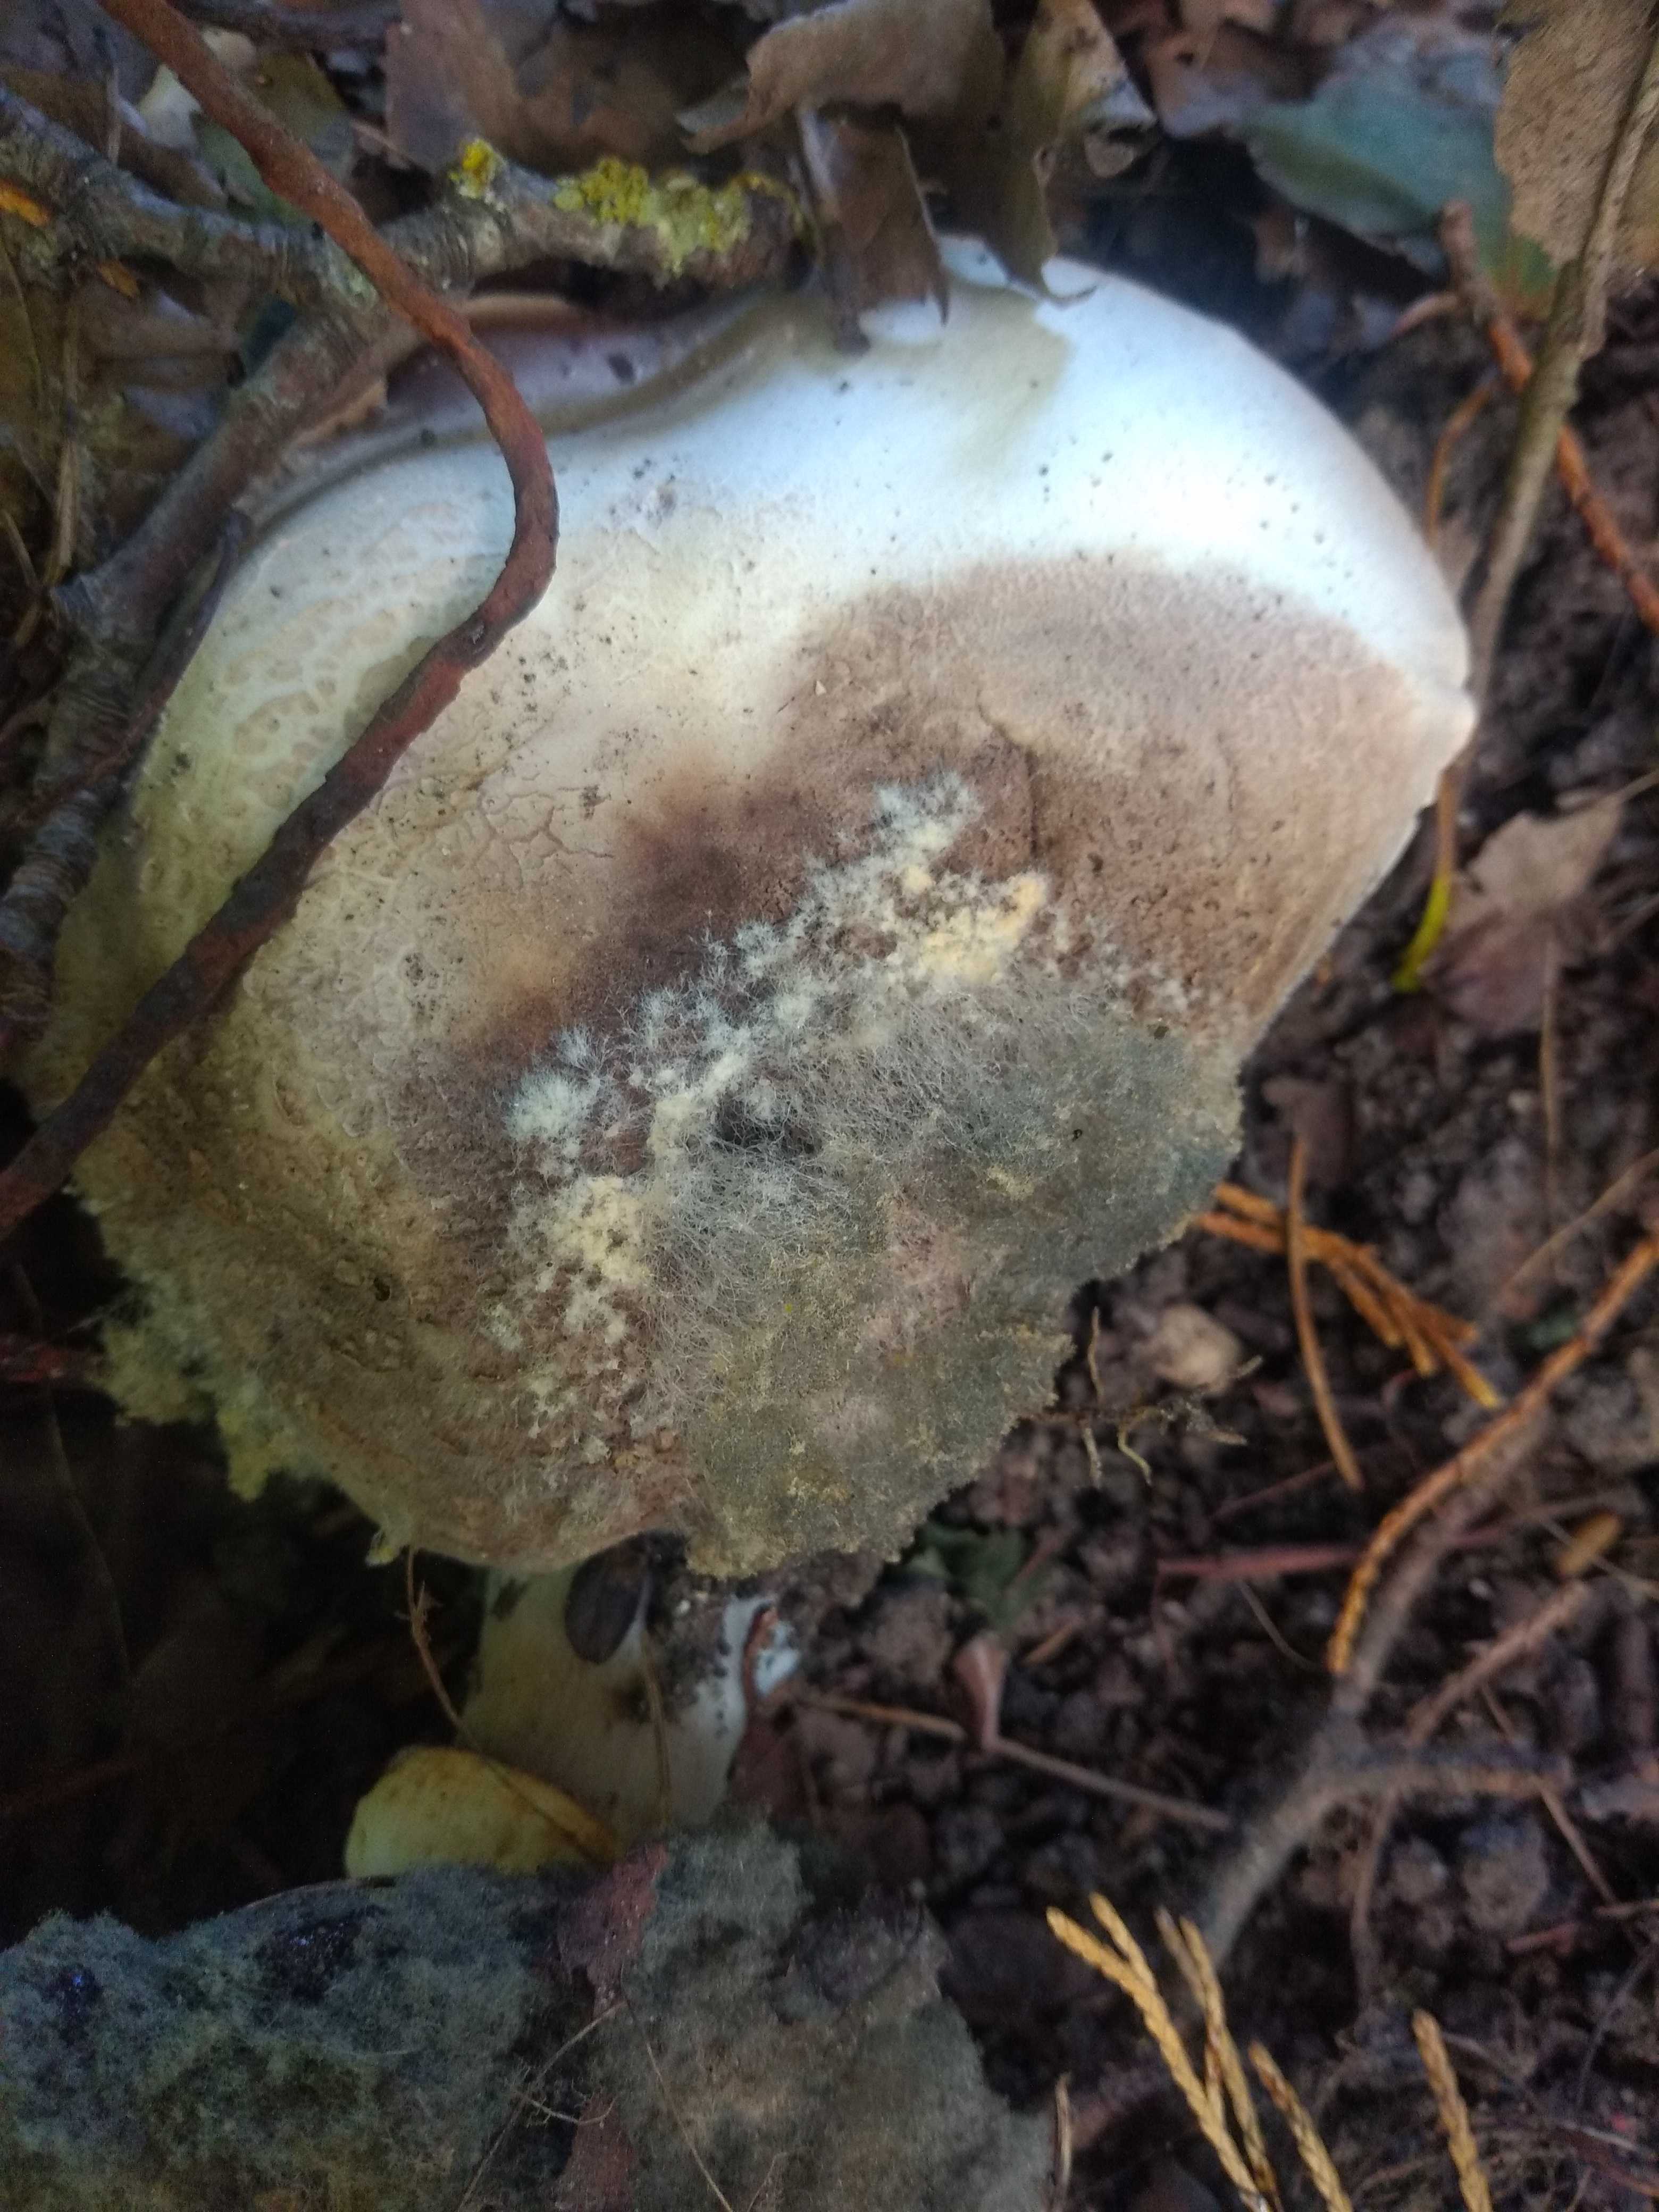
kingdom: Fungi
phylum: Mucoromycota
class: Mucoromycetes
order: Mucorales
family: Rhizopodaceae
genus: Syzygites
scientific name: Syzygites megalocarpus
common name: nissenål
